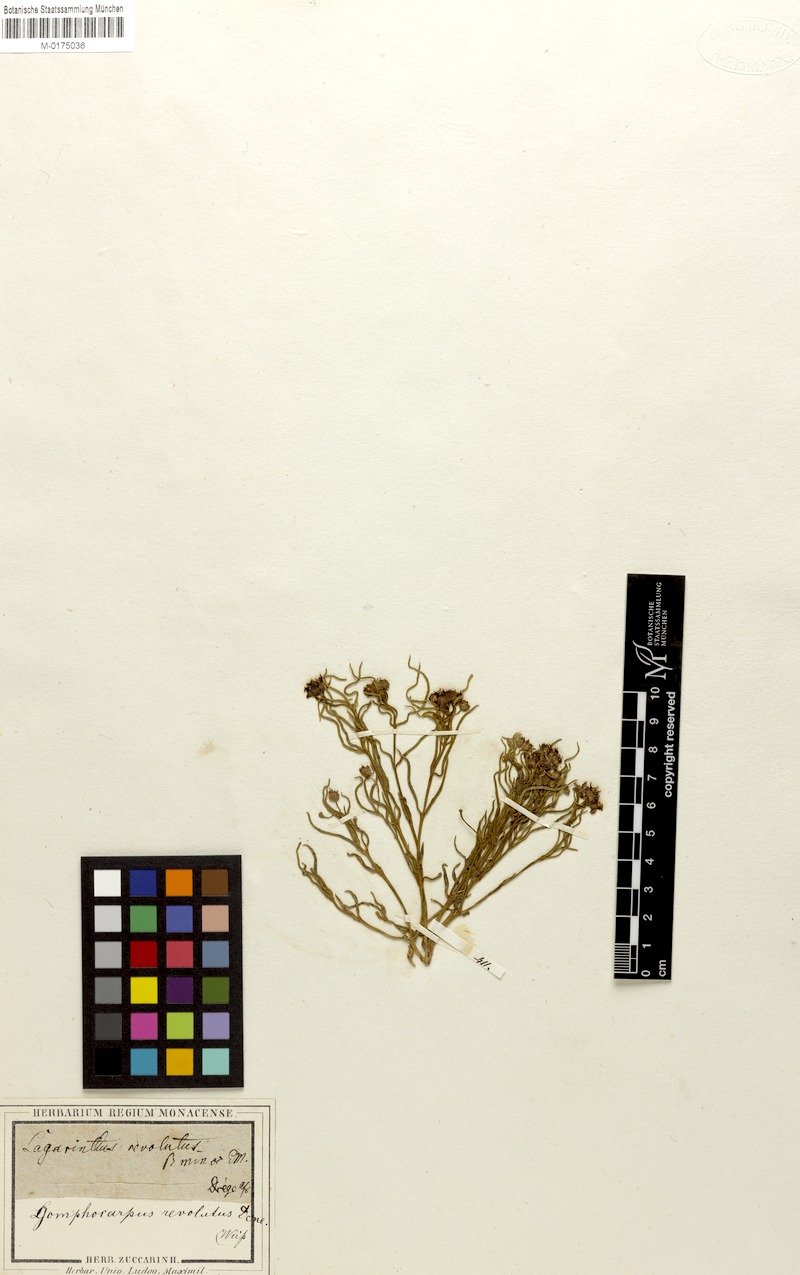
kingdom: Plantae
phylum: Tracheophyta
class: Magnoliopsida
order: Gentianales
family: Apocynaceae
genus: Asclepias
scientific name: Asclepias tuberosa
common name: Butterfly milkweed
